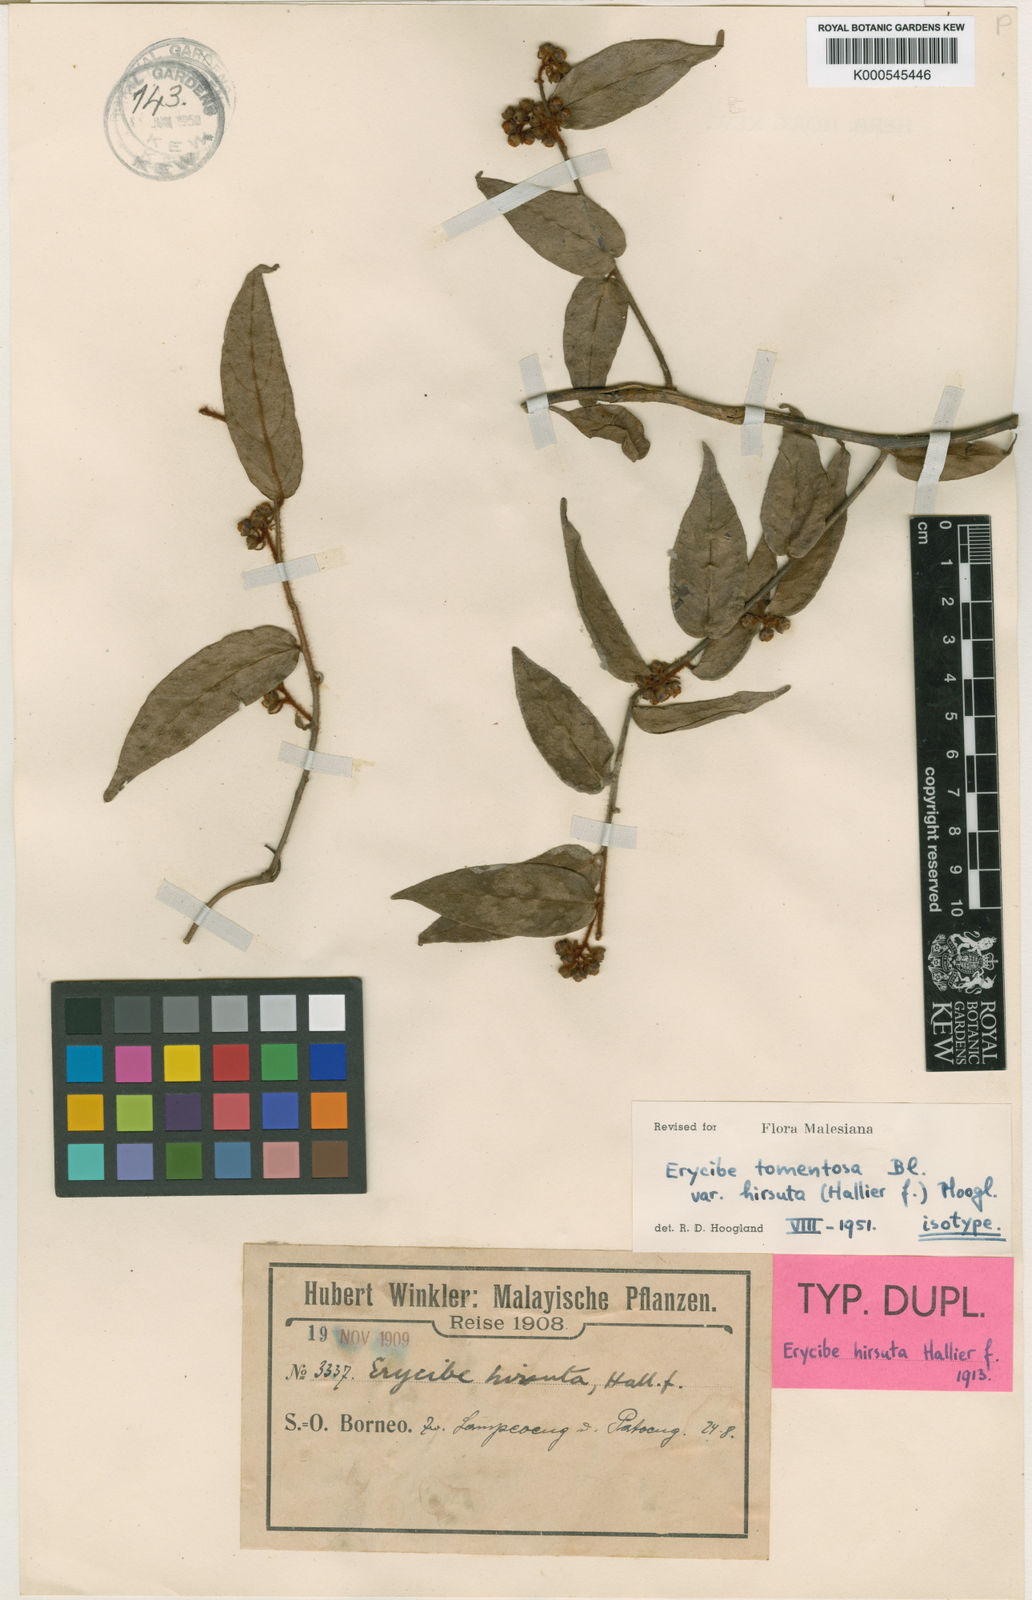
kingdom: Plantae
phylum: Tracheophyta
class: Magnoliopsida
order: Solanales
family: Convolvulaceae
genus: Erycibe
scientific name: Erycibe tomentosa
